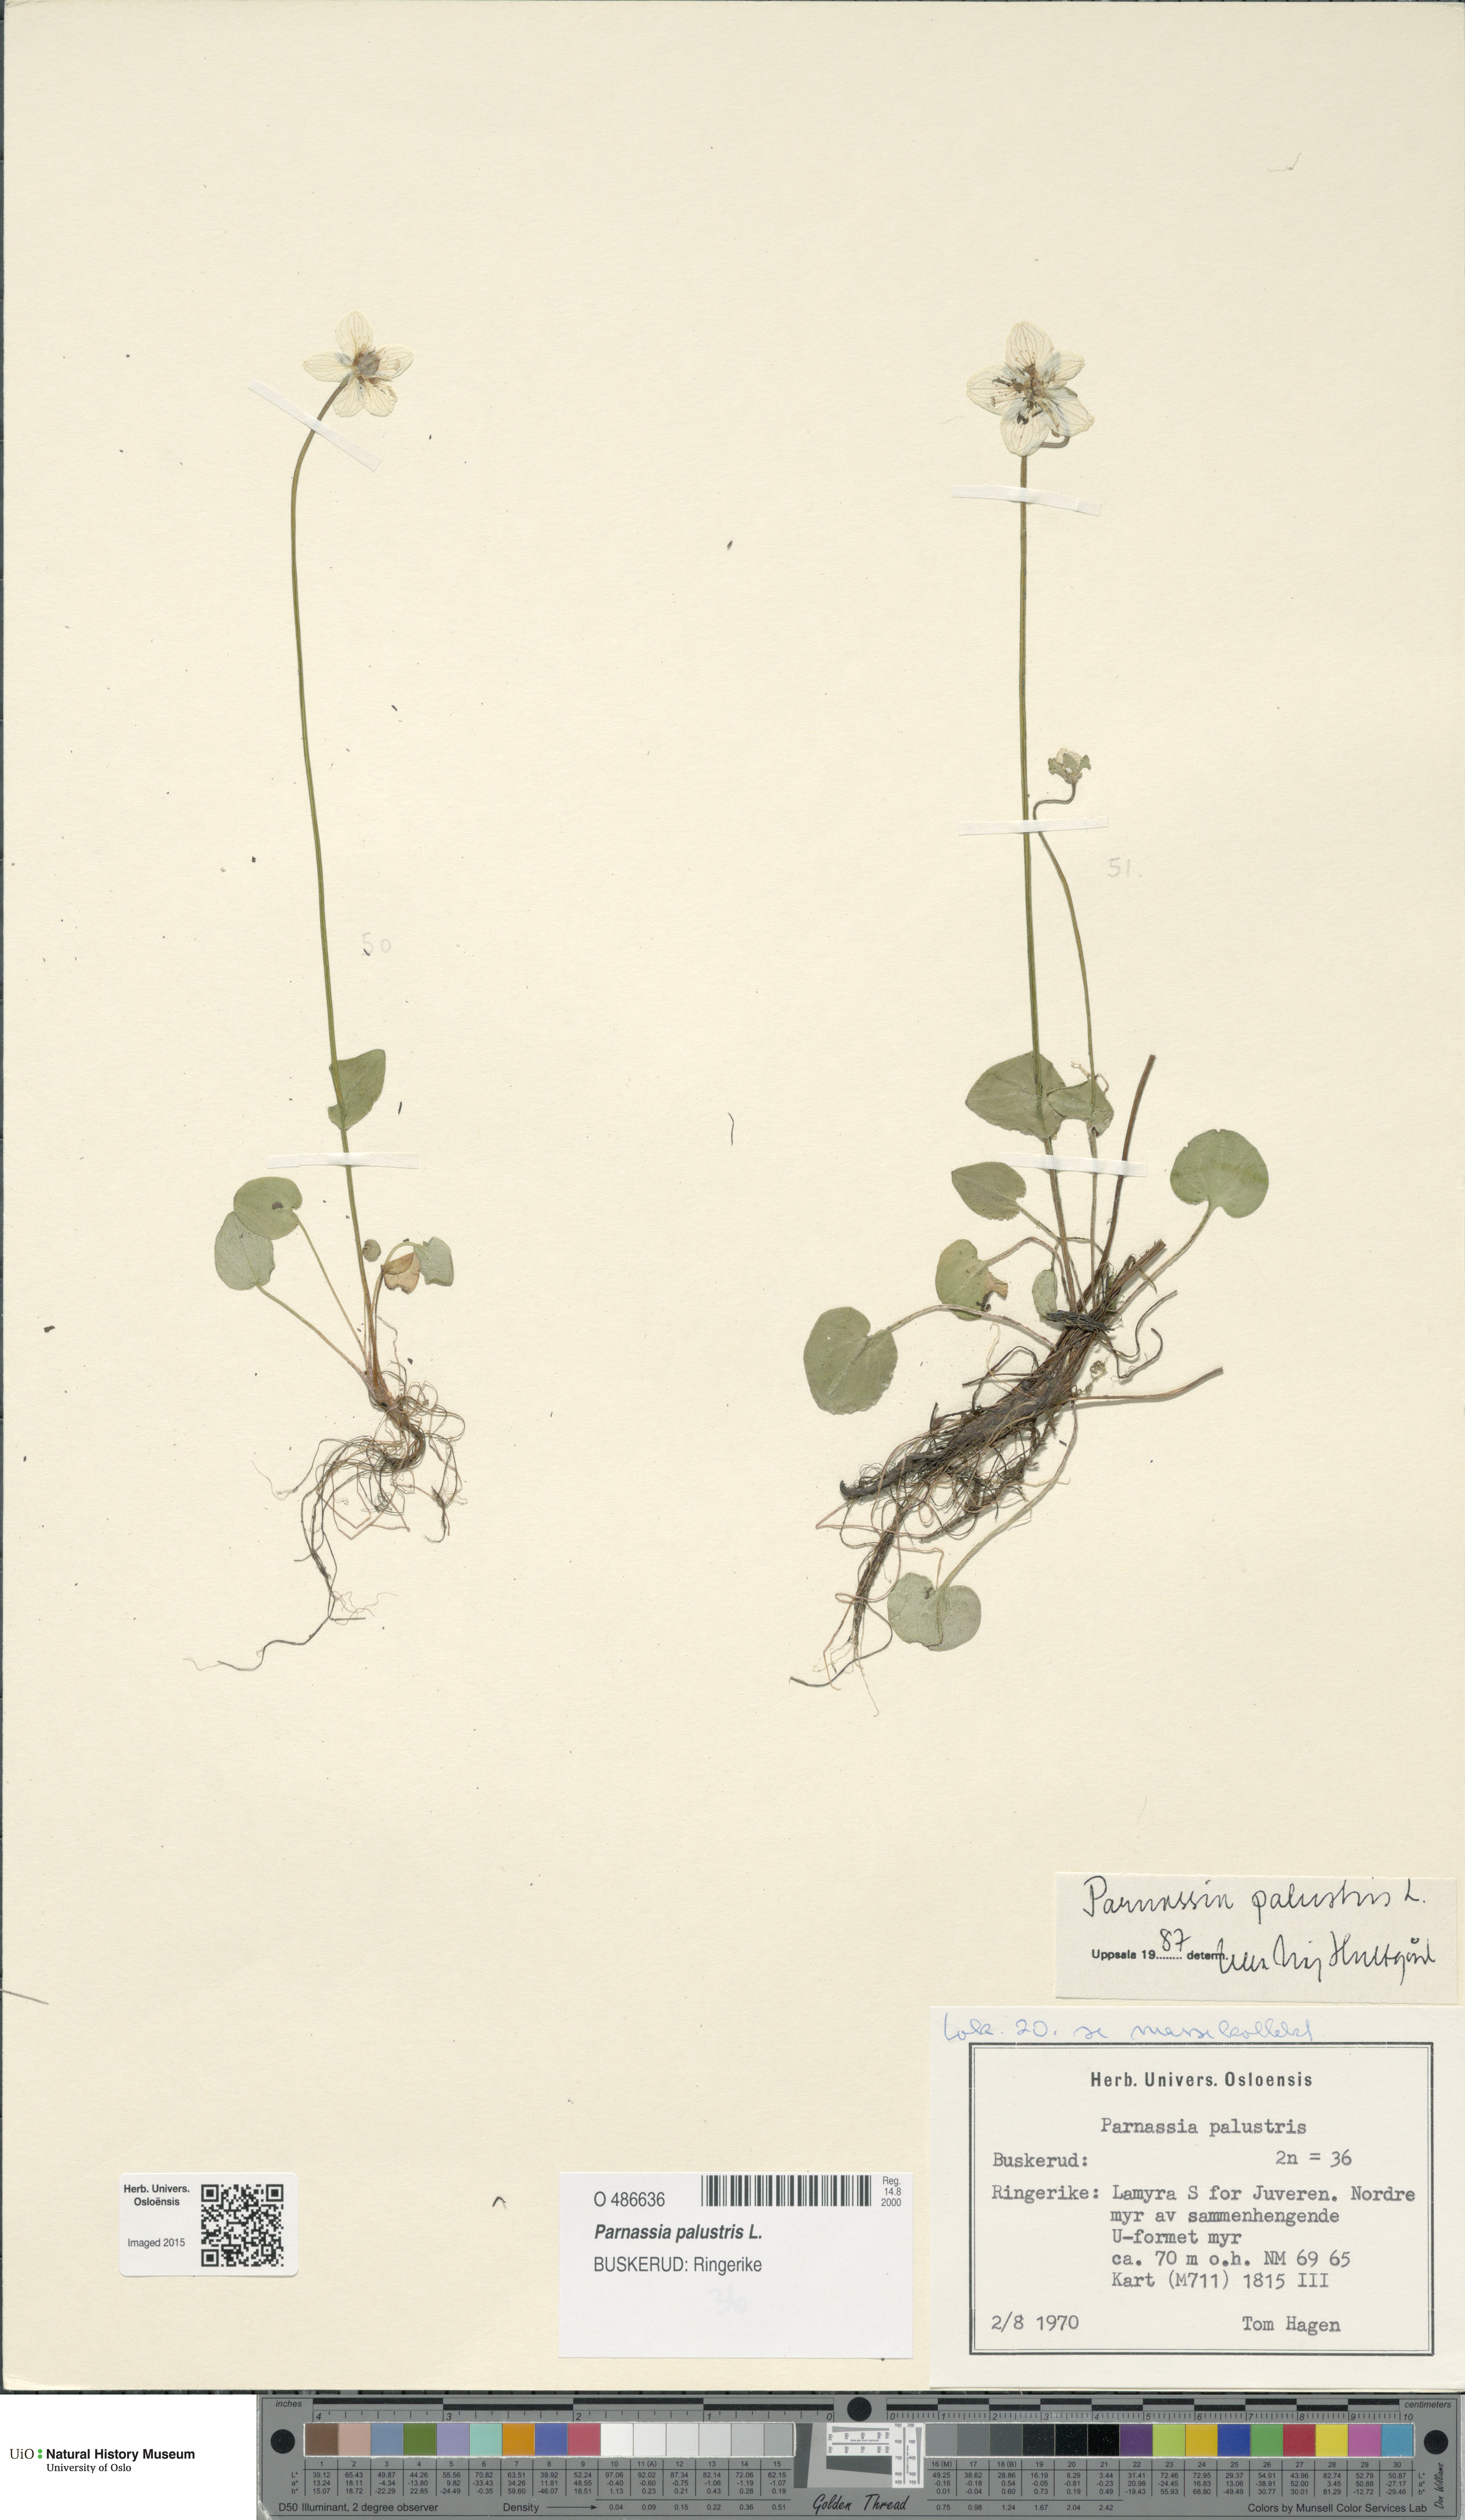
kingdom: Plantae
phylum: Tracheophyta
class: Magnoliopsida
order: Celastrales
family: Parnassiaceae
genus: Parnassia
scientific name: Parnassia palustris
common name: Grass-of-parnassus
